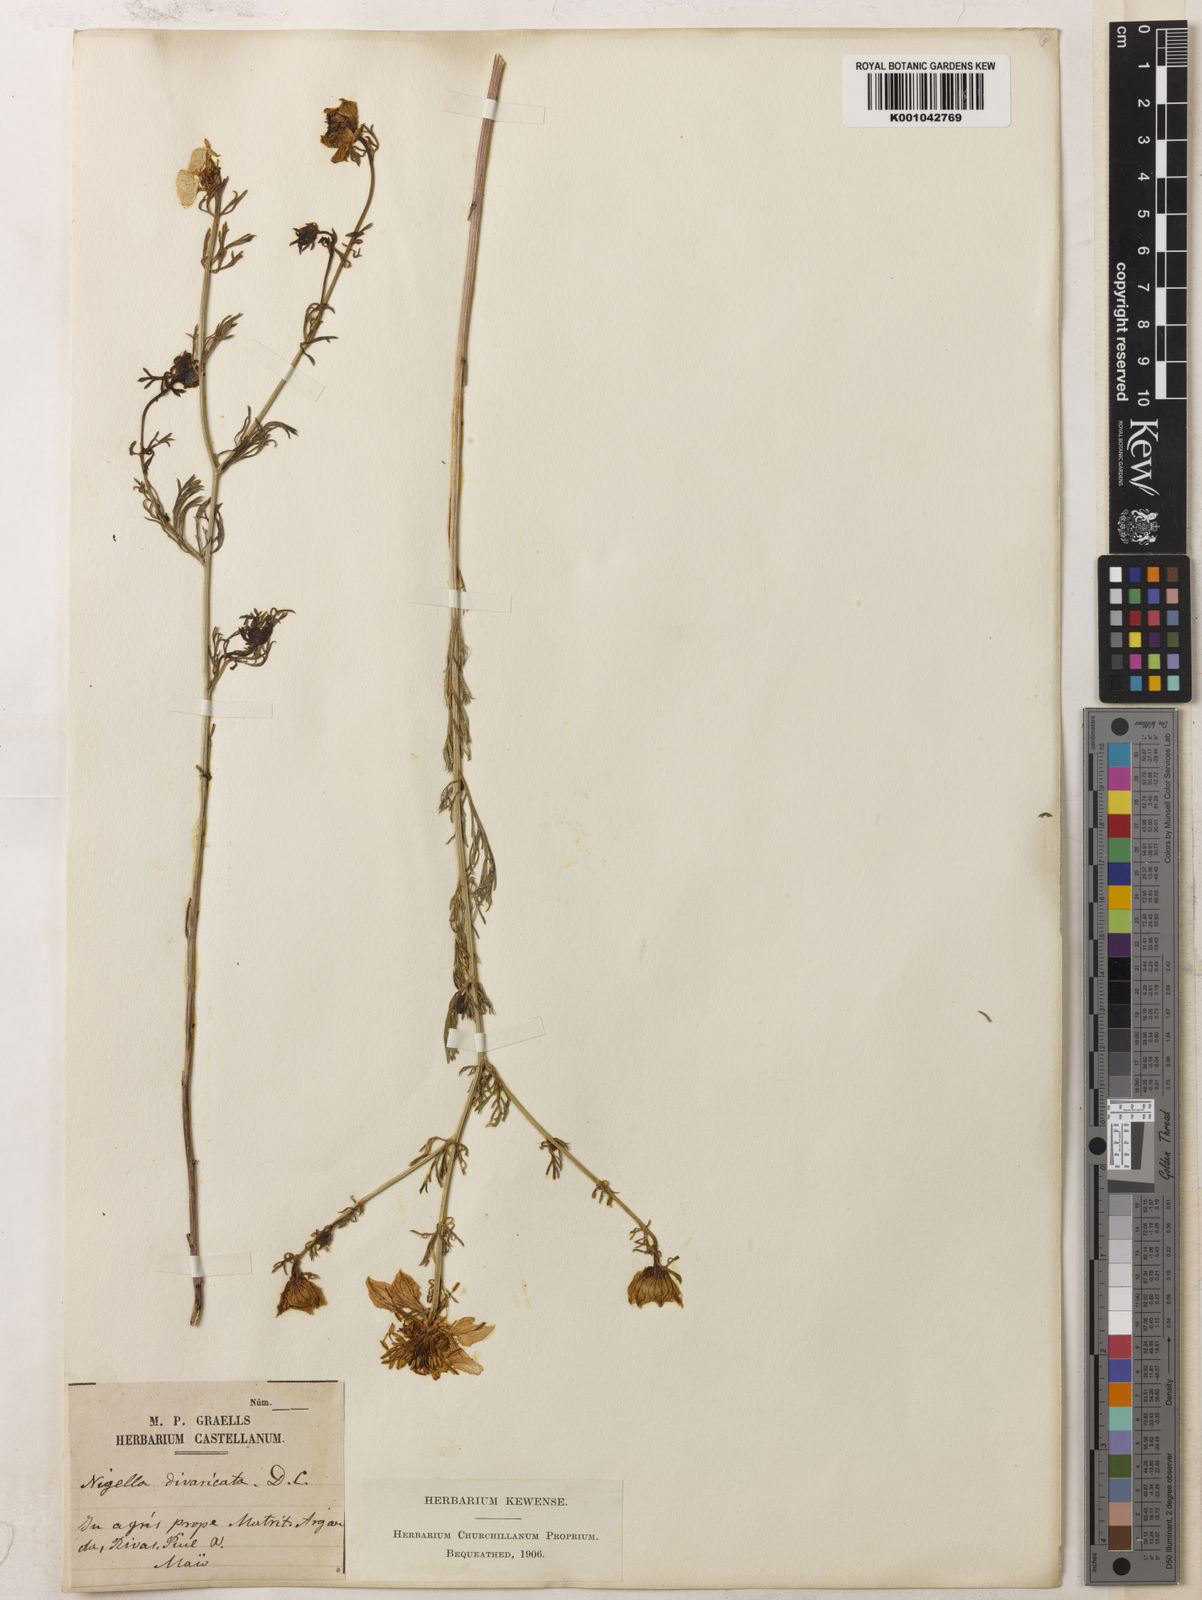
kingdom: Plantae
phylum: Tracheophyta
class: Magnoliopsida
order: Ranunculales
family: Ranunculaceae
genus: Nigella
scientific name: Nigella hispanica
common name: Fennel-flower
